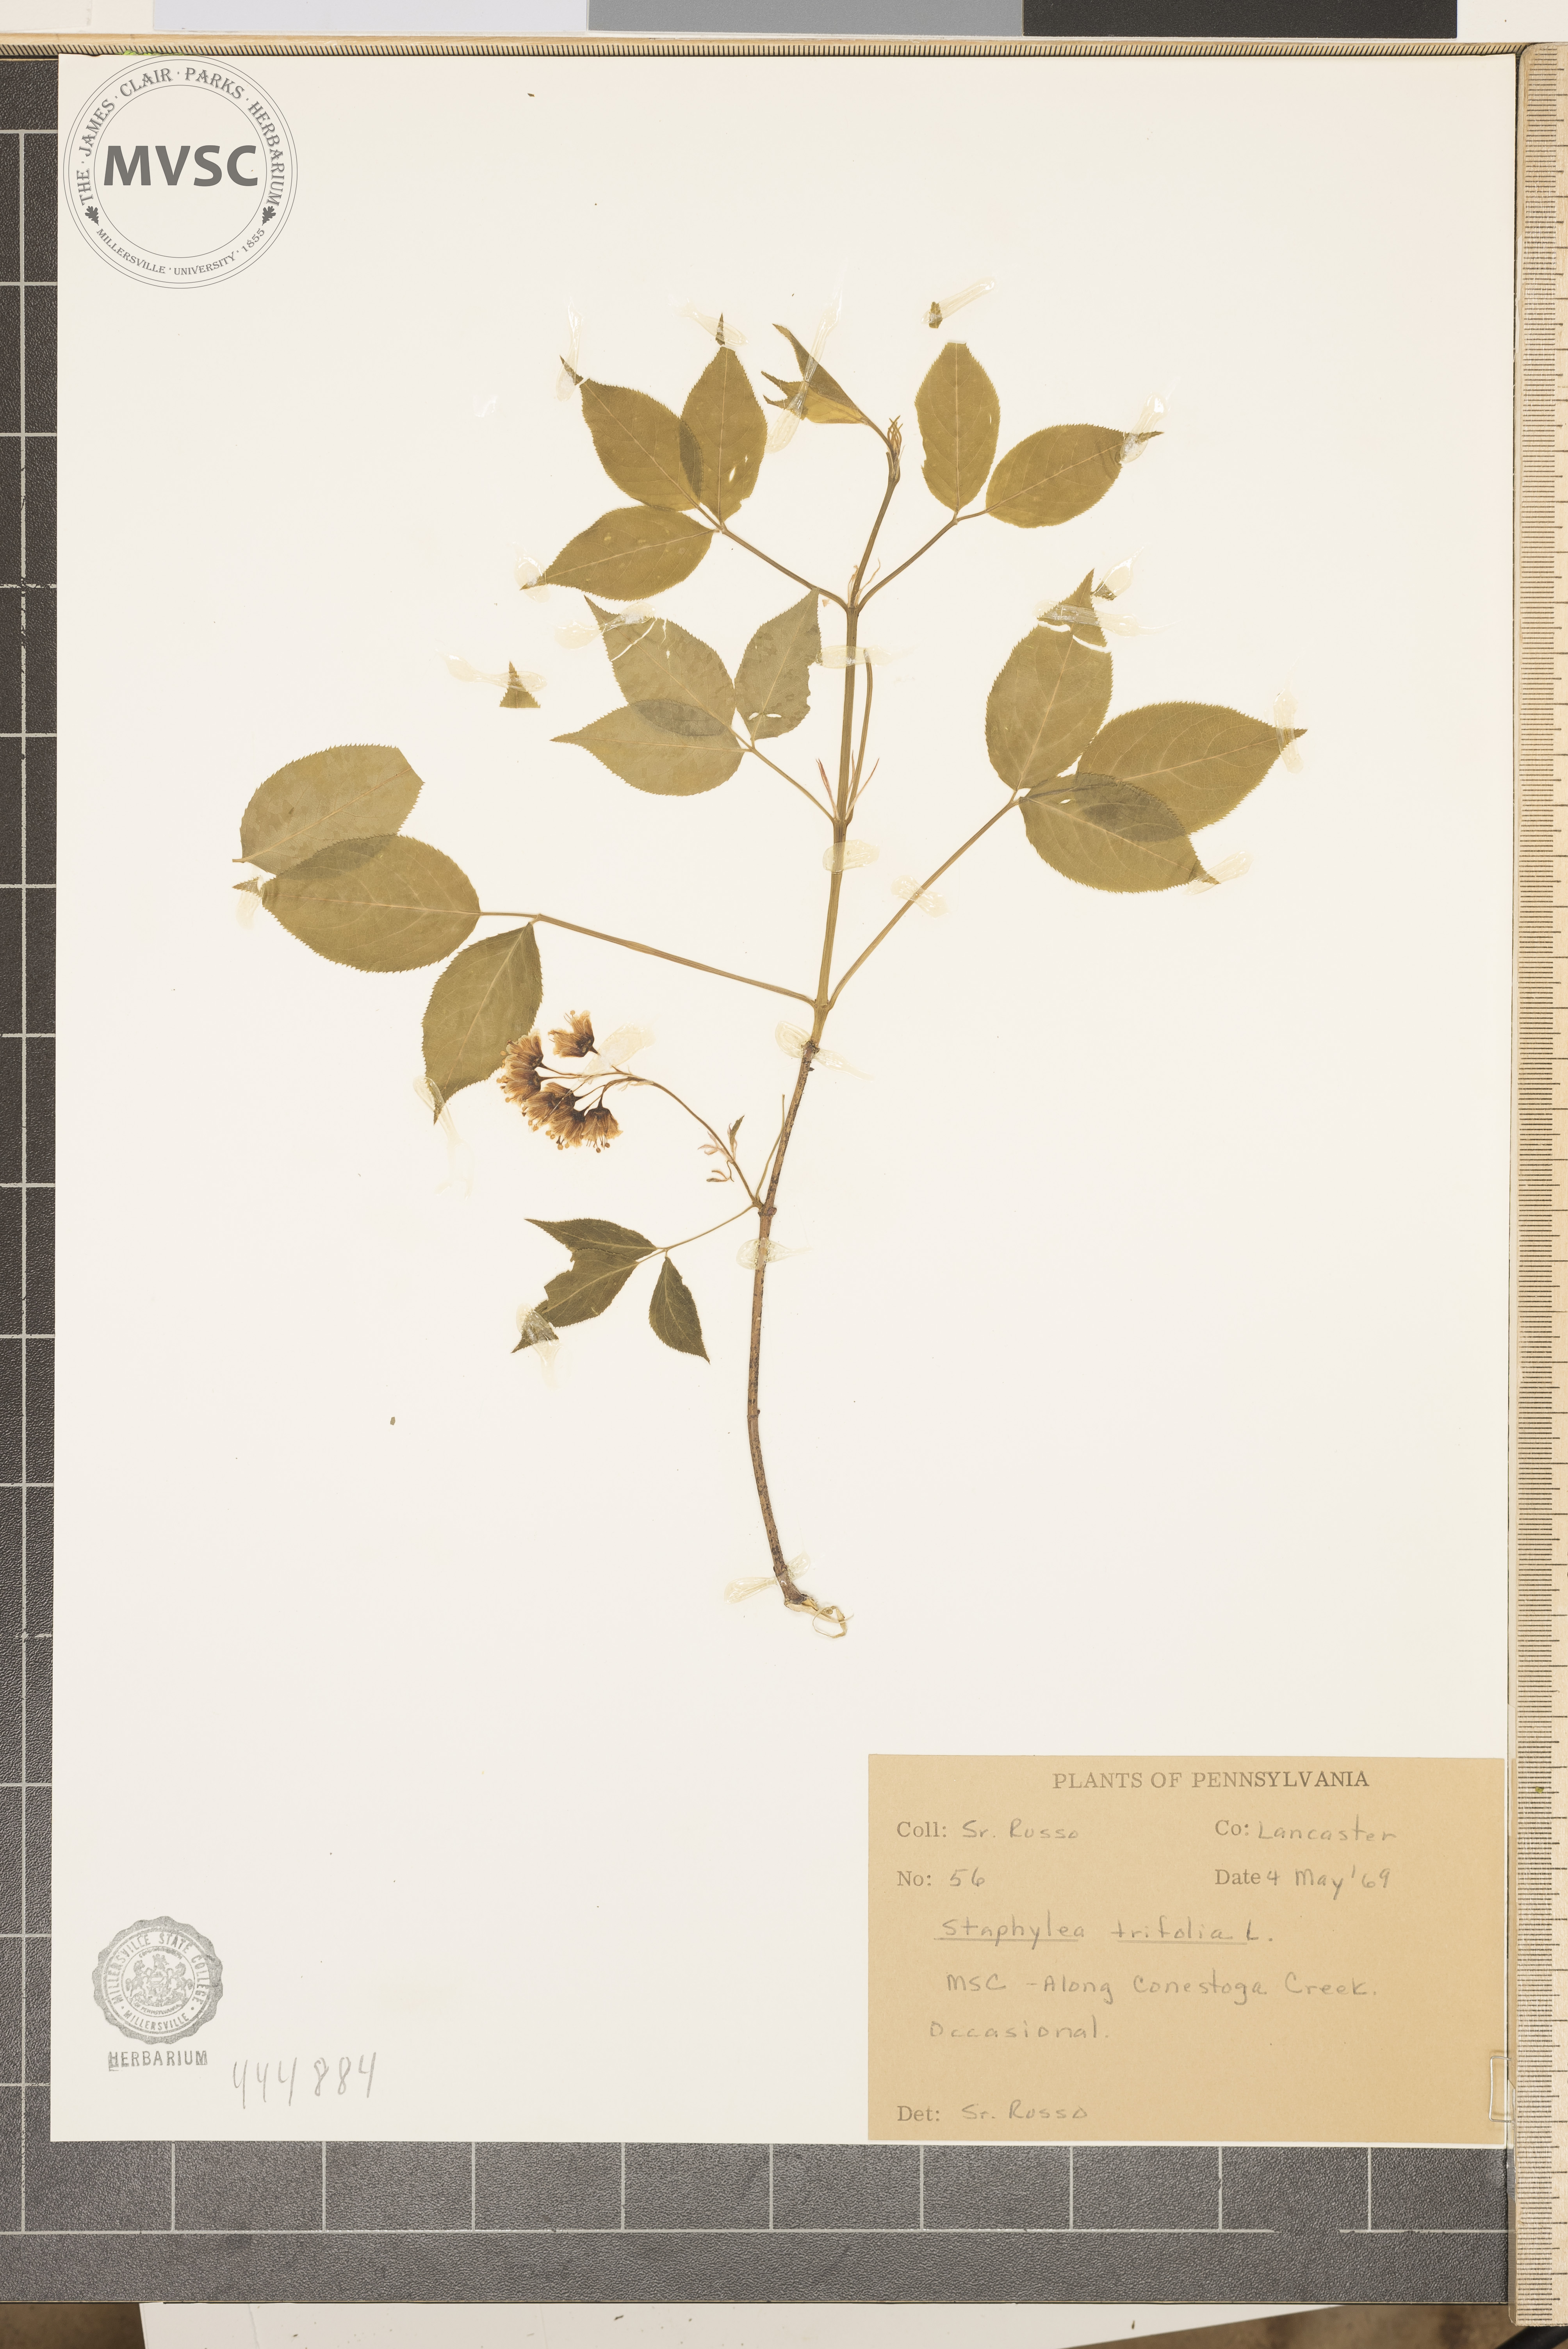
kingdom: Plantae
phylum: Tracheophyta
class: Magnoliopsida
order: Crossosomatales
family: Staphyleaceae
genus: Staphylea
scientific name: Staphylea trifolia
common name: American bladdernut
